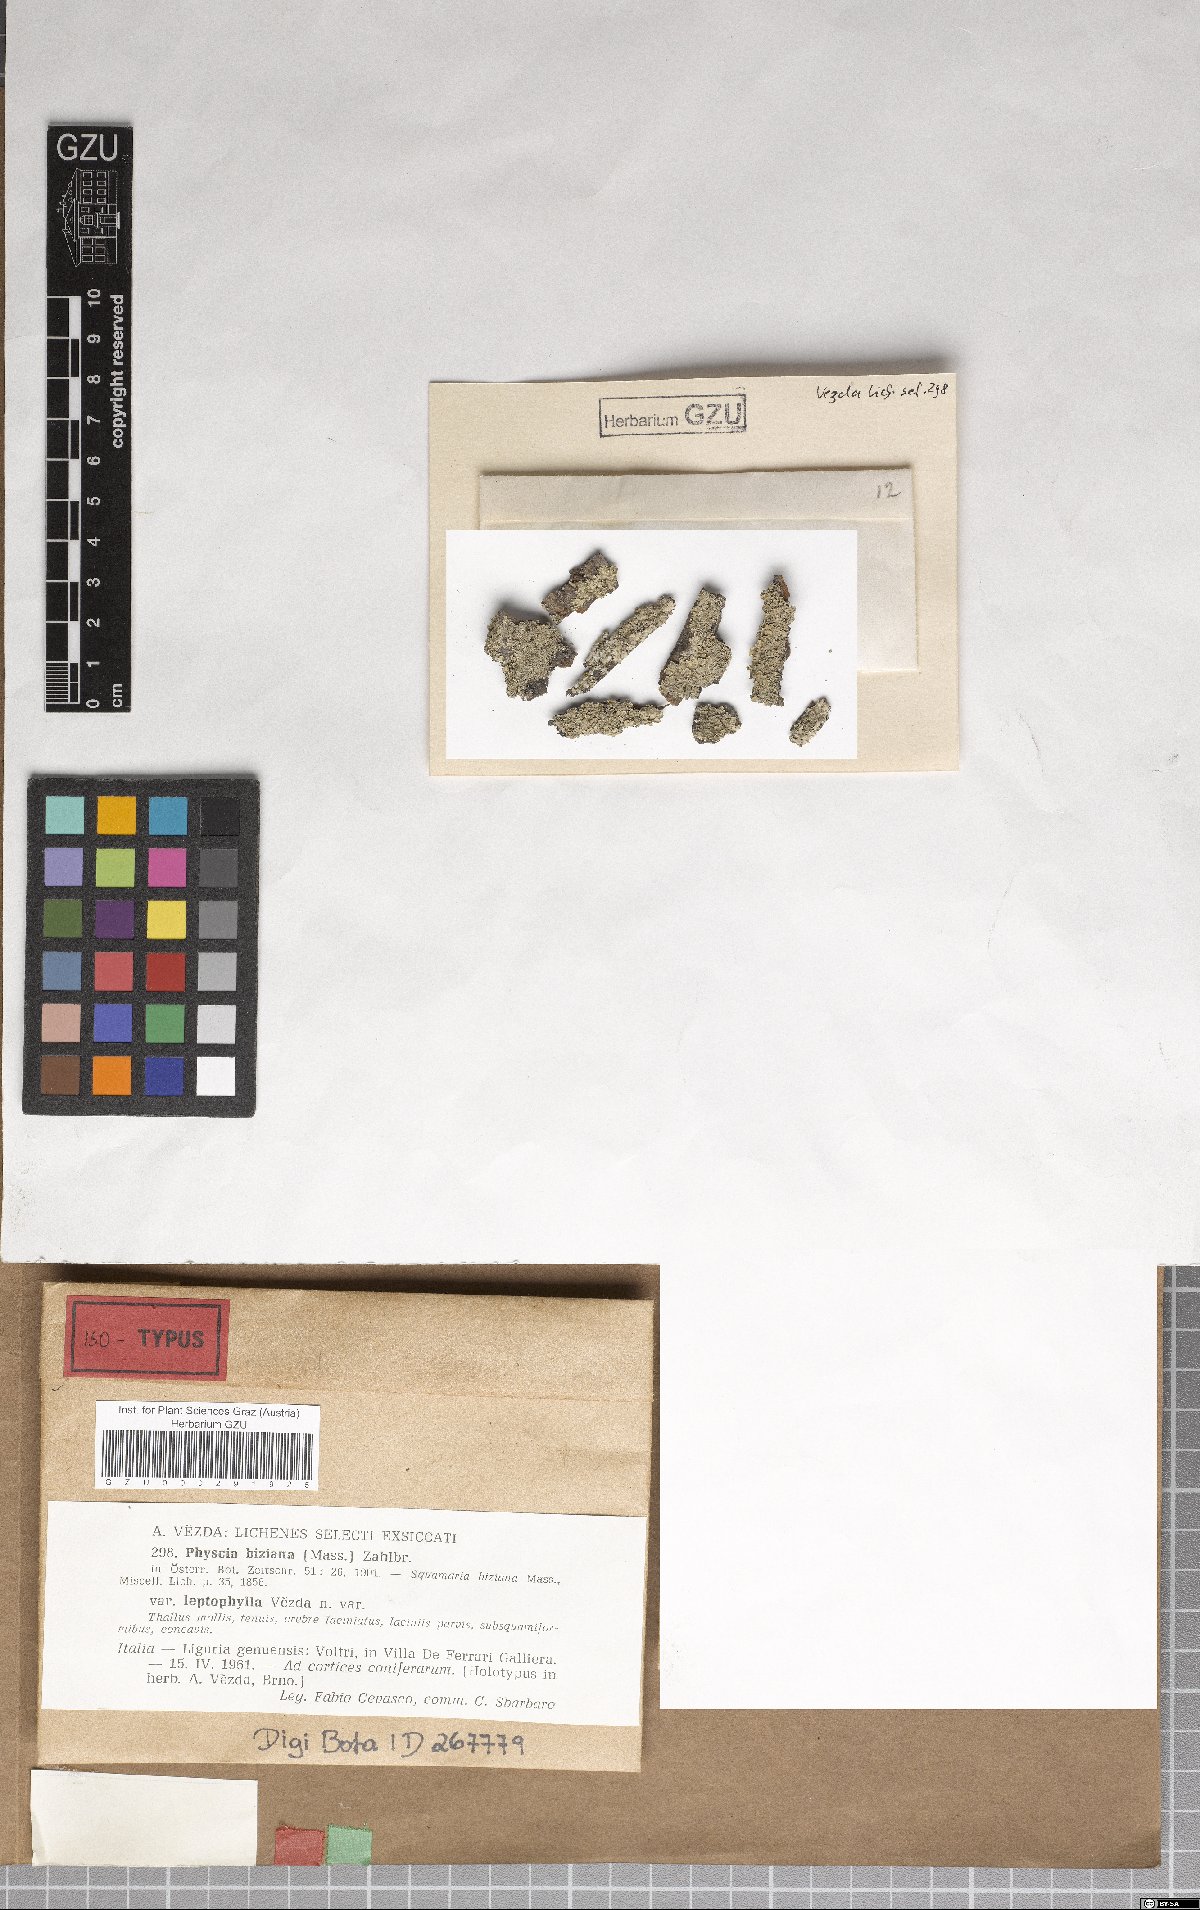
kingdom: Fungi
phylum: Ascomycota
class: Lecanoromycetes
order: Caliciales
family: Physciaceae
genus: Physcia
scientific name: Physcia biziana
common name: Frosted rosette lichen
